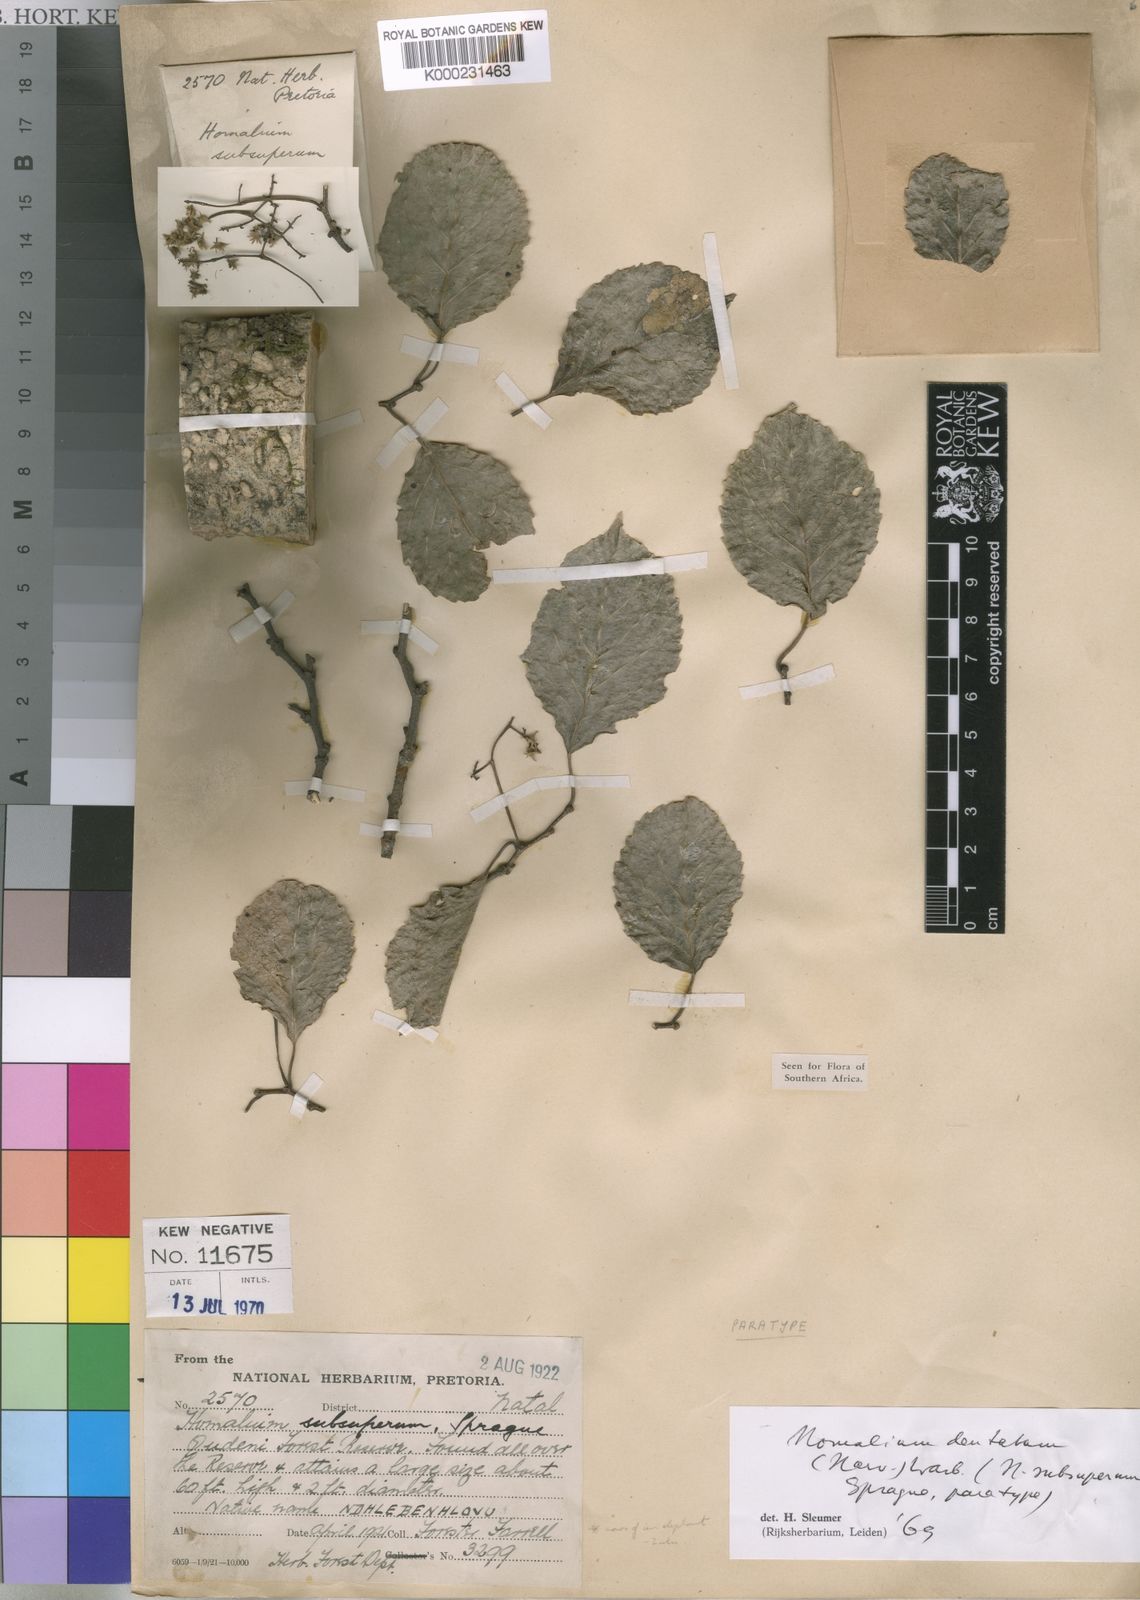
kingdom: Plantae
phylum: Tracheophyta
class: Magnoliopsida
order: Malpighiales
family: Salicaceae
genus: Homalium
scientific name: Homalium dentatum
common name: Brown ironwood
